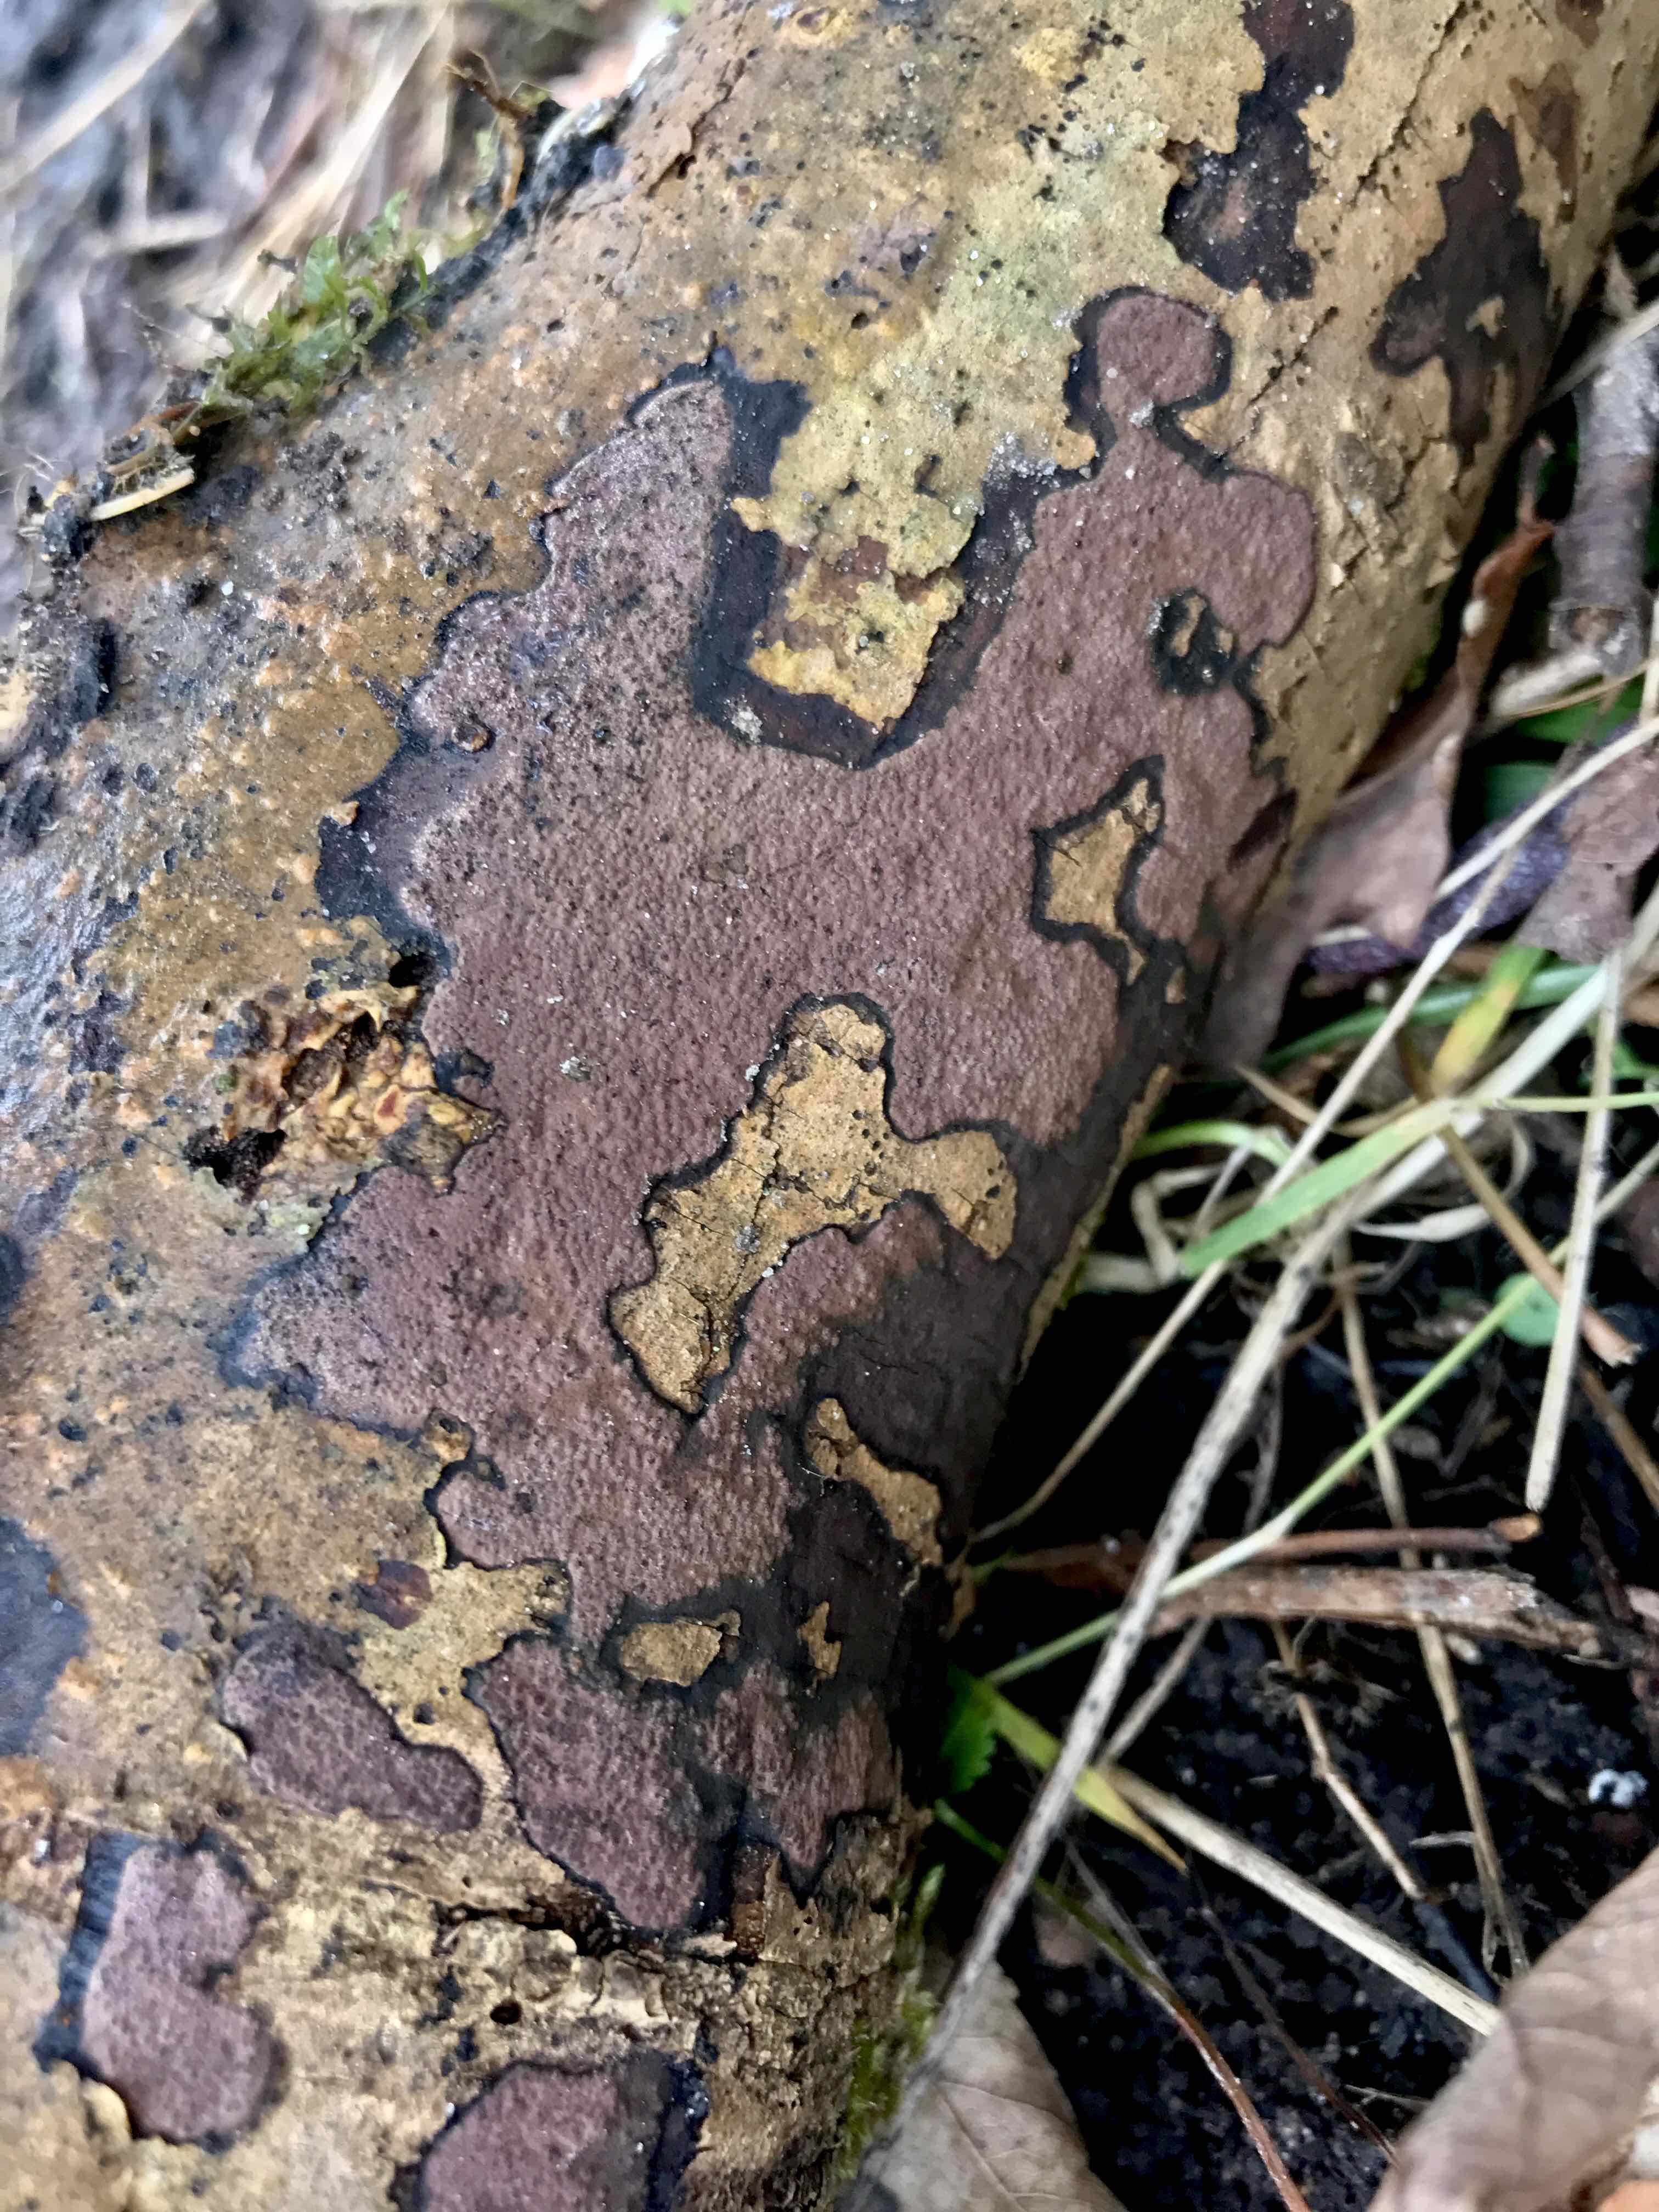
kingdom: Fungi
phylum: Ascomycota
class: Sordariomycetes
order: Xylariales
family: Hypoxylaceae
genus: Hypoxylon
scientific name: Hypoxylon petriniae
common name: nedsænket kulbær
